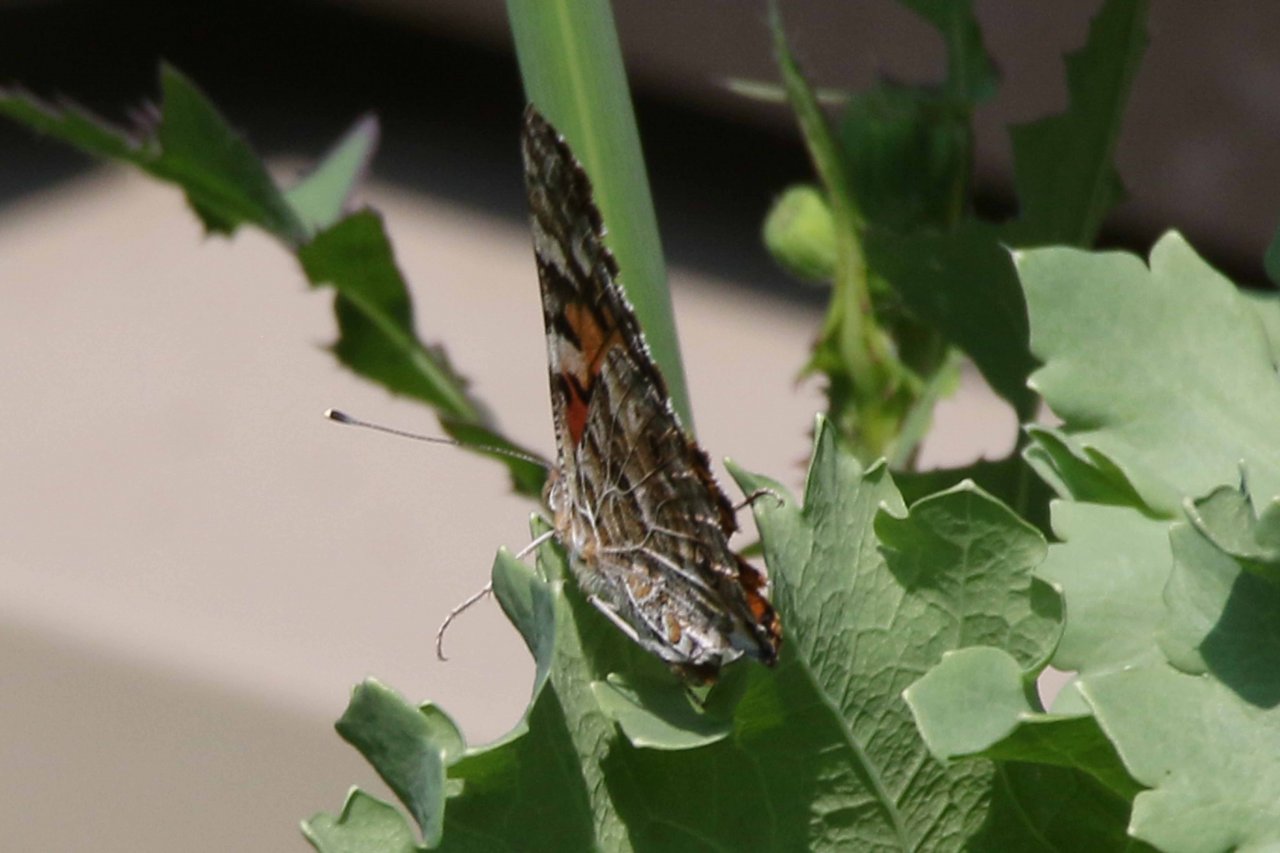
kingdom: Animalia
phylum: Arthropoda
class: Insecta
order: Lepidoptera
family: Nymphalidae
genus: Vanessa
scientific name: Vanessa cardui
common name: Painted Lady
